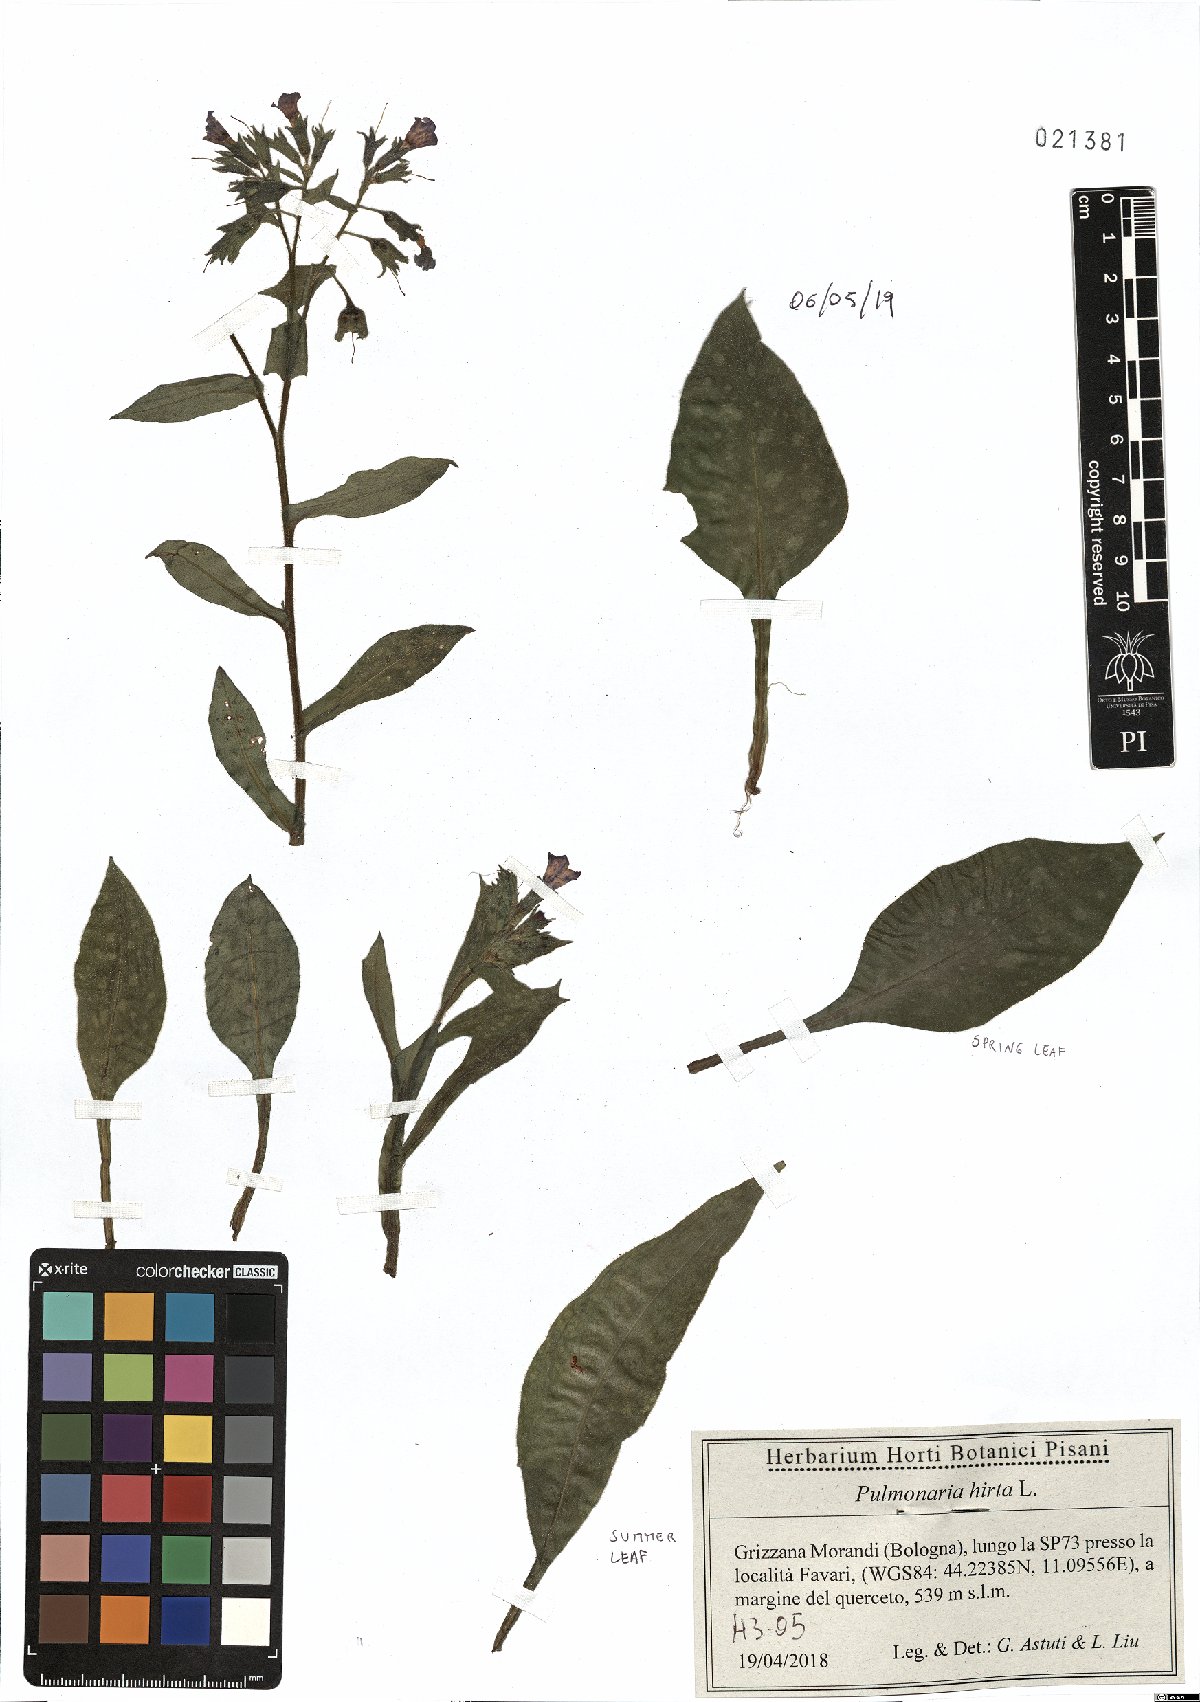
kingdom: Plantae
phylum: Tracheophyta
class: Magnoliopsida
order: Boraginales
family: Boraginaceae
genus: Pulmonaria
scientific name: Pulmonaria hirta
